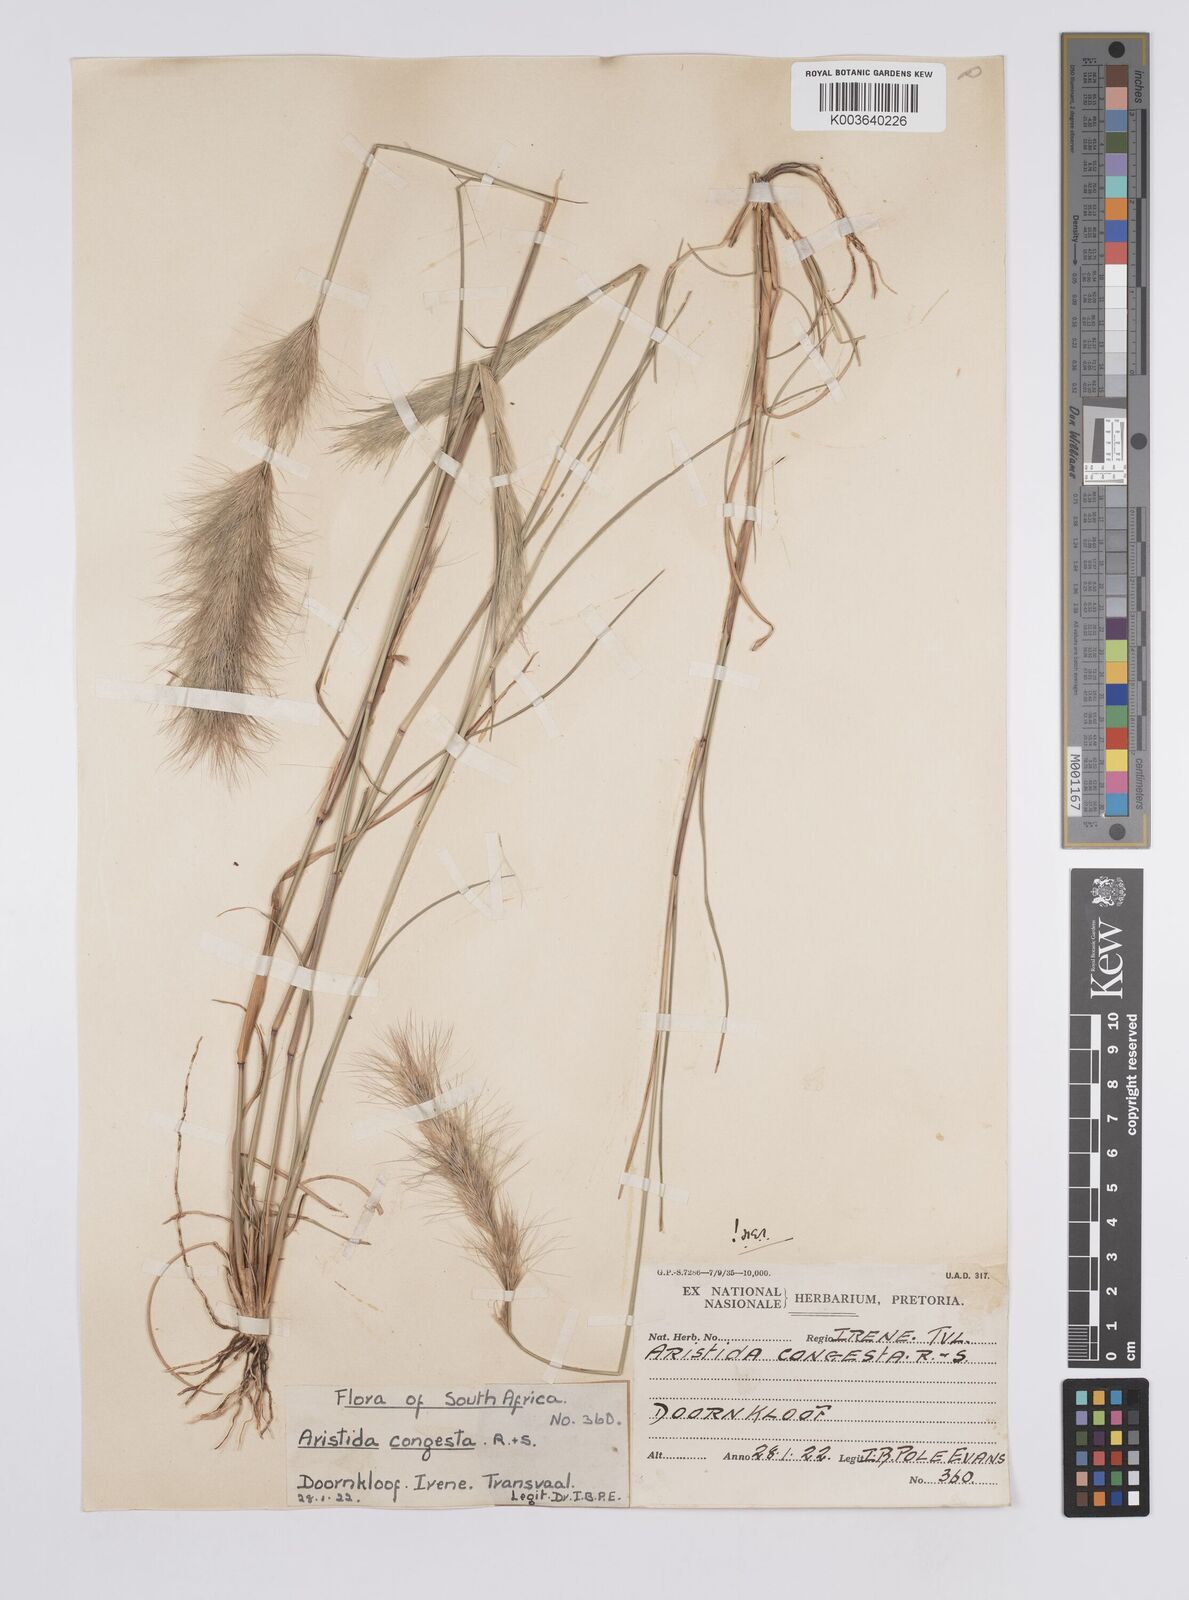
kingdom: Plantae
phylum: Tracheophyta
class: Liliopsida
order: Poales
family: Poaceae
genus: Aristida
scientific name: Aristida congesta
